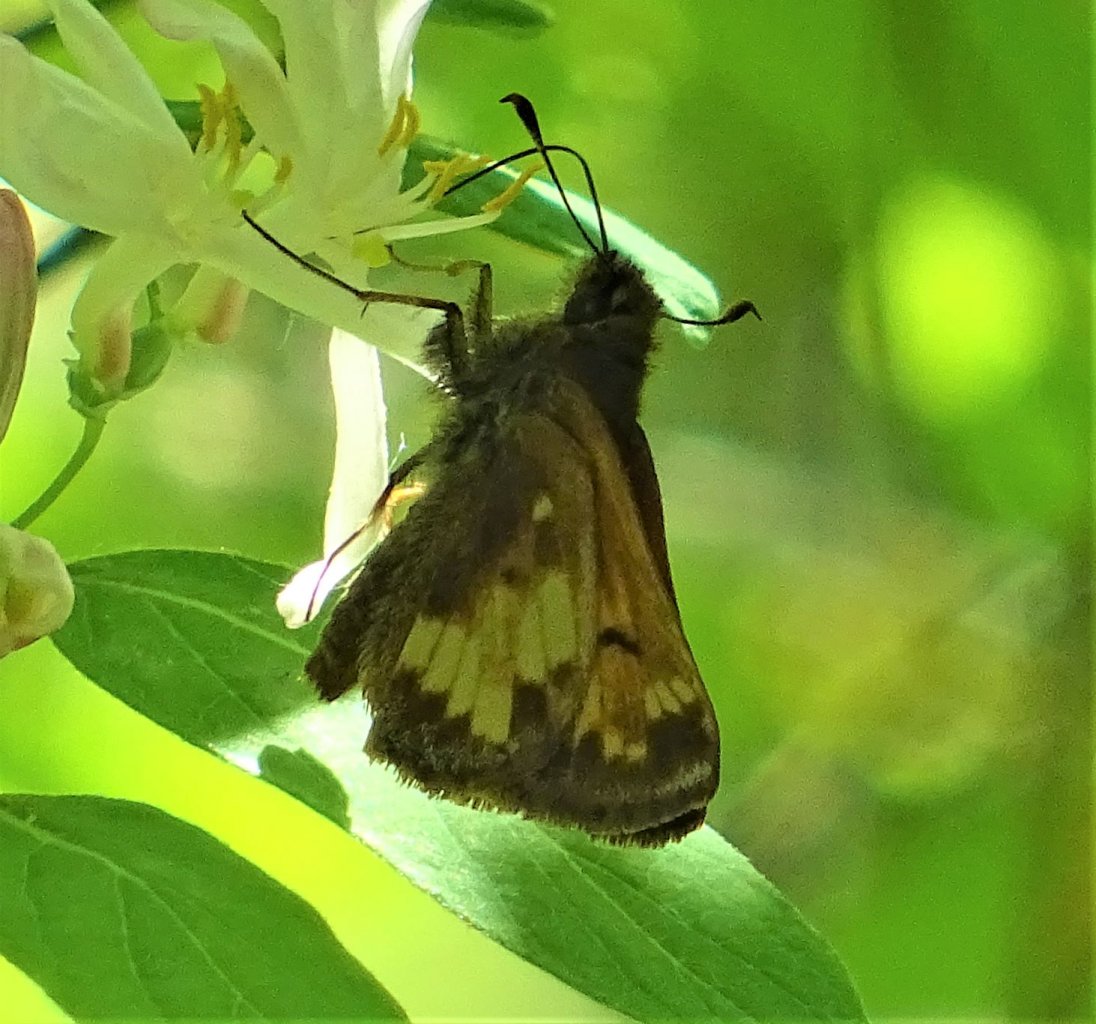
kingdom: Animalia
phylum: Arthropoda
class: Insecta
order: Lepidoptera
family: Hesperiidae
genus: Lon
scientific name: Lon hobomok
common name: Hobomok Skipper
